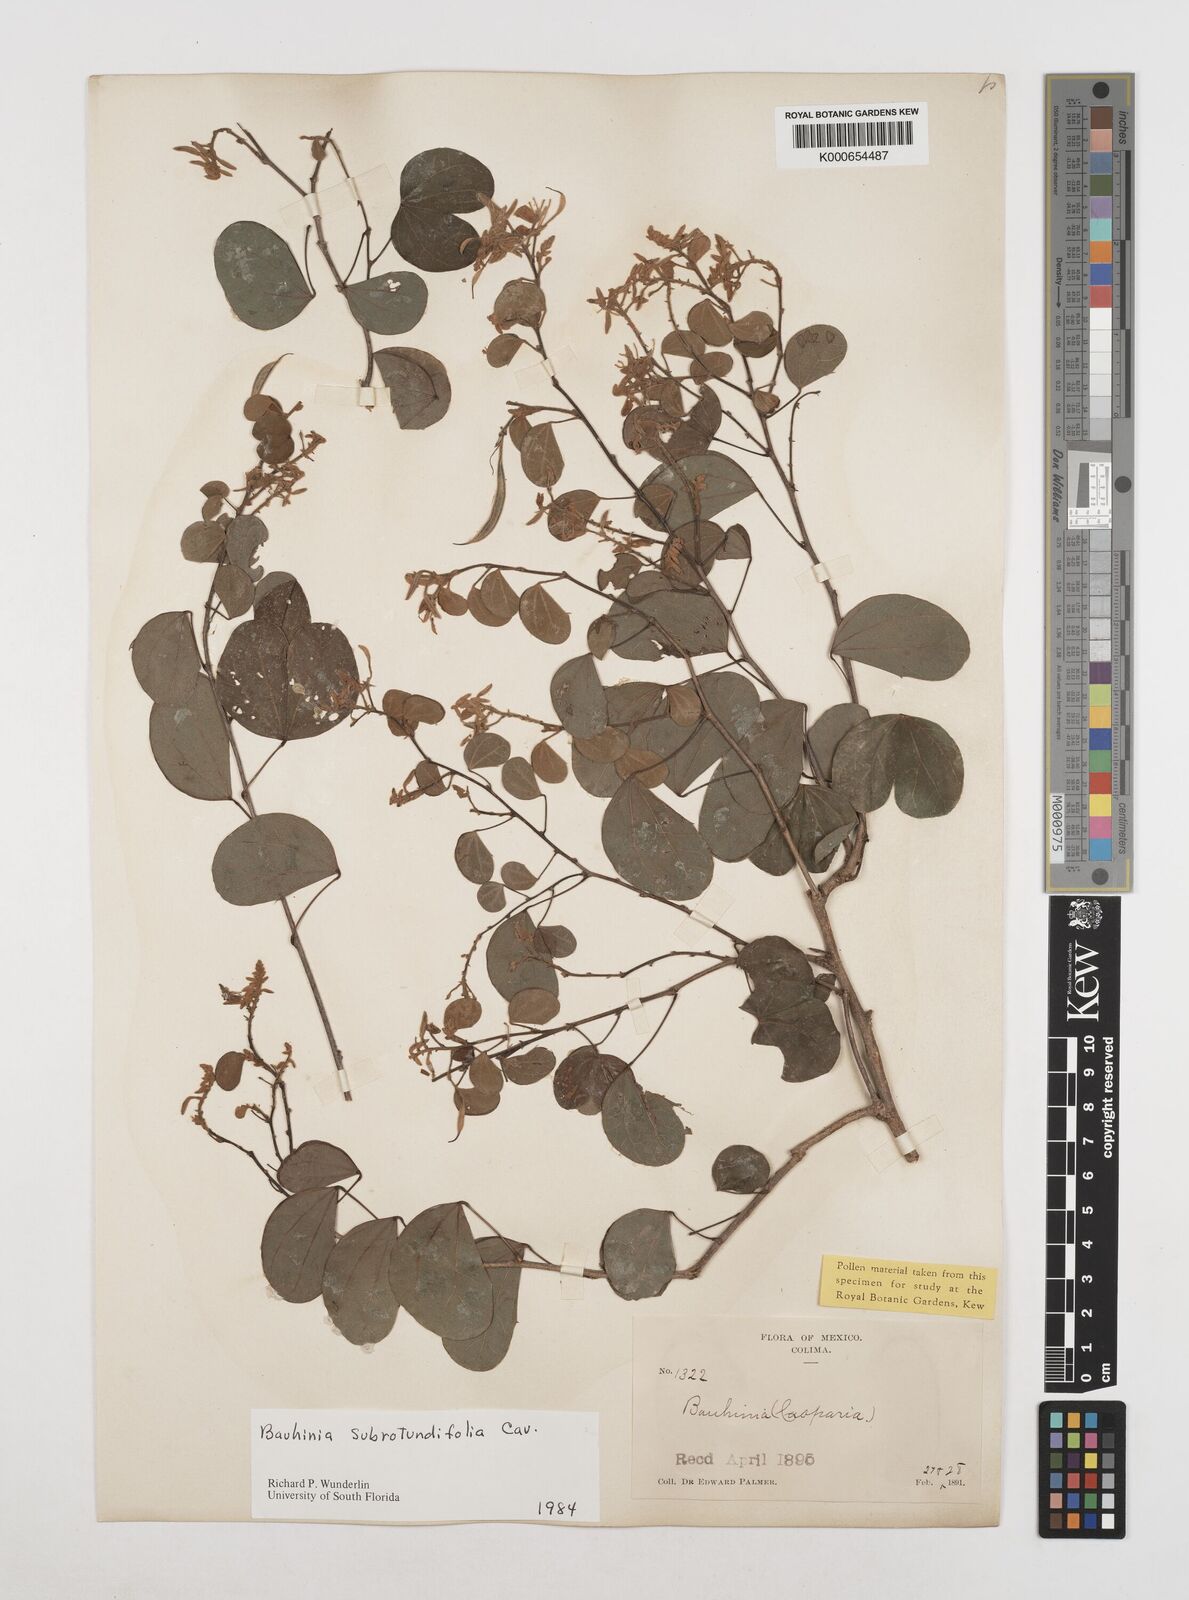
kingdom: Plantae
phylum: Tracheophyta
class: Magnoliopsida
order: Fabales
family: Fabaceae
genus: Bauhinia
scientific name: Bauhinia subrotundifolia
